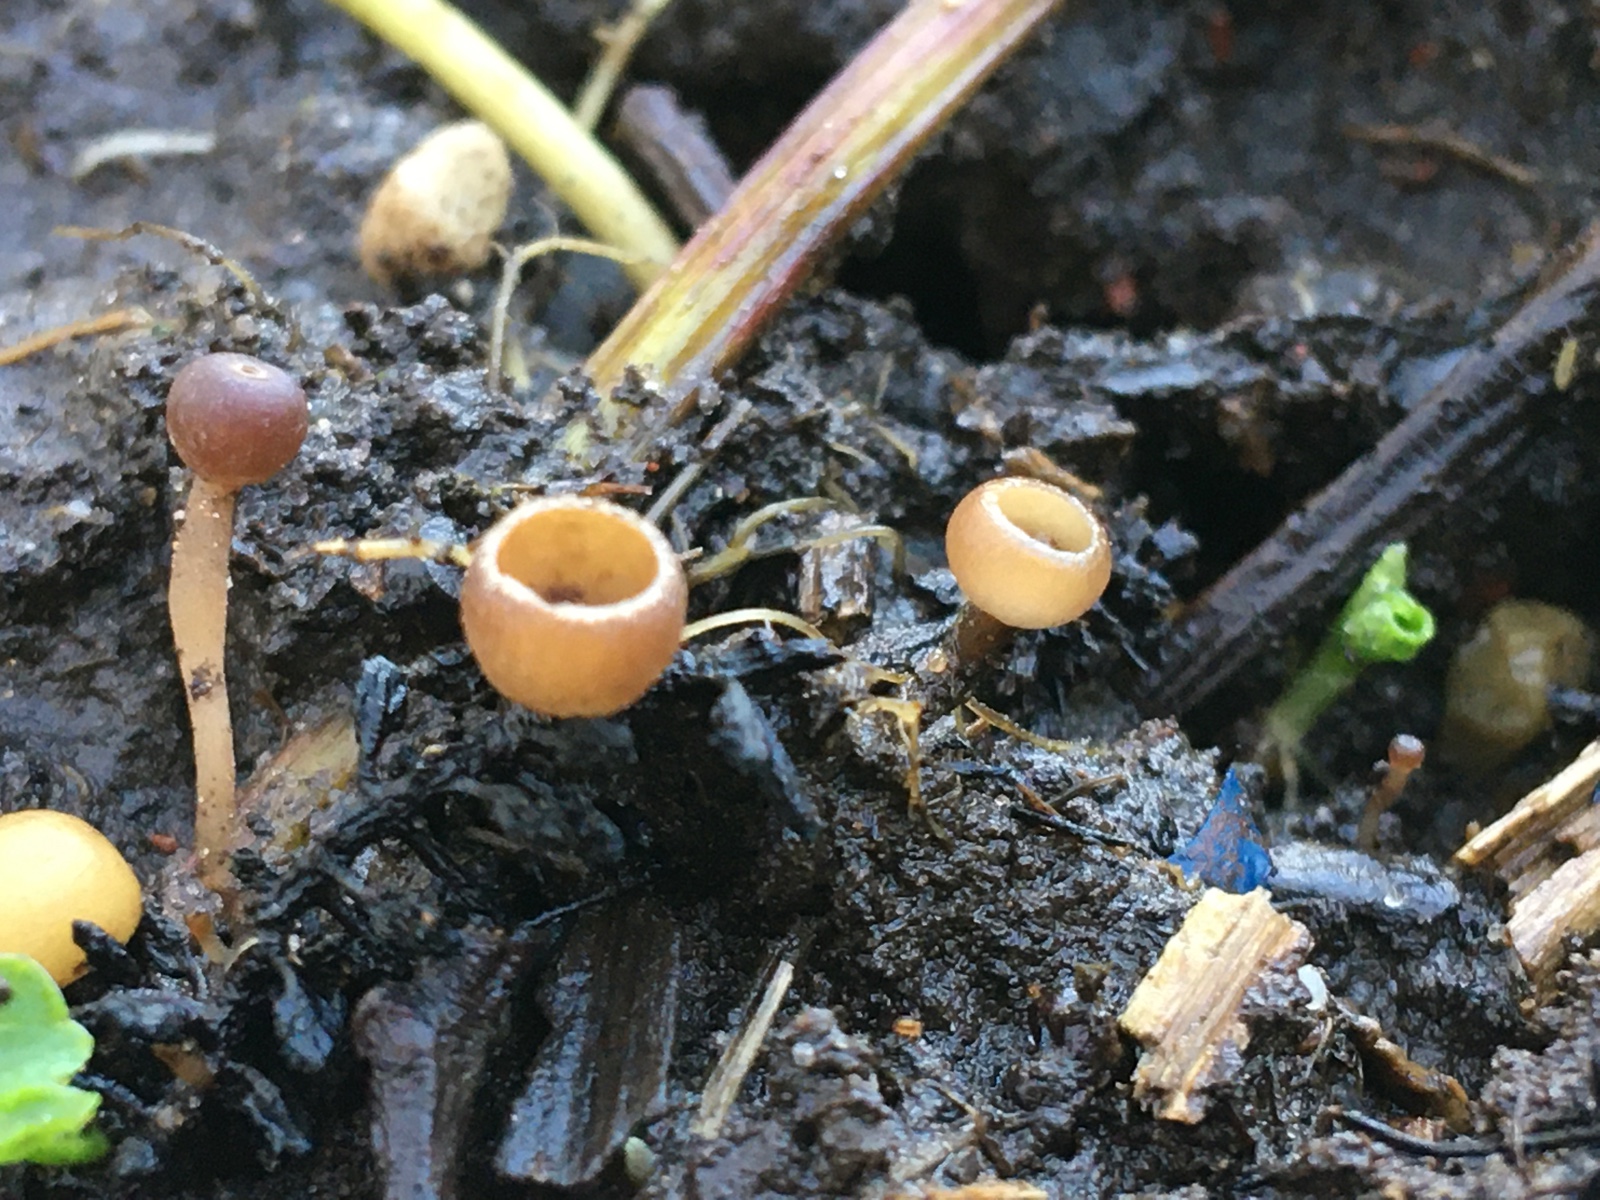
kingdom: Fungi
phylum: Ascomycota
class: Leotiomycetes
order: Helotiales
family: Sclerotiniaceae
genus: Ciboria
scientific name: Ciboria amentacea
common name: ellerakle-knoldskive
